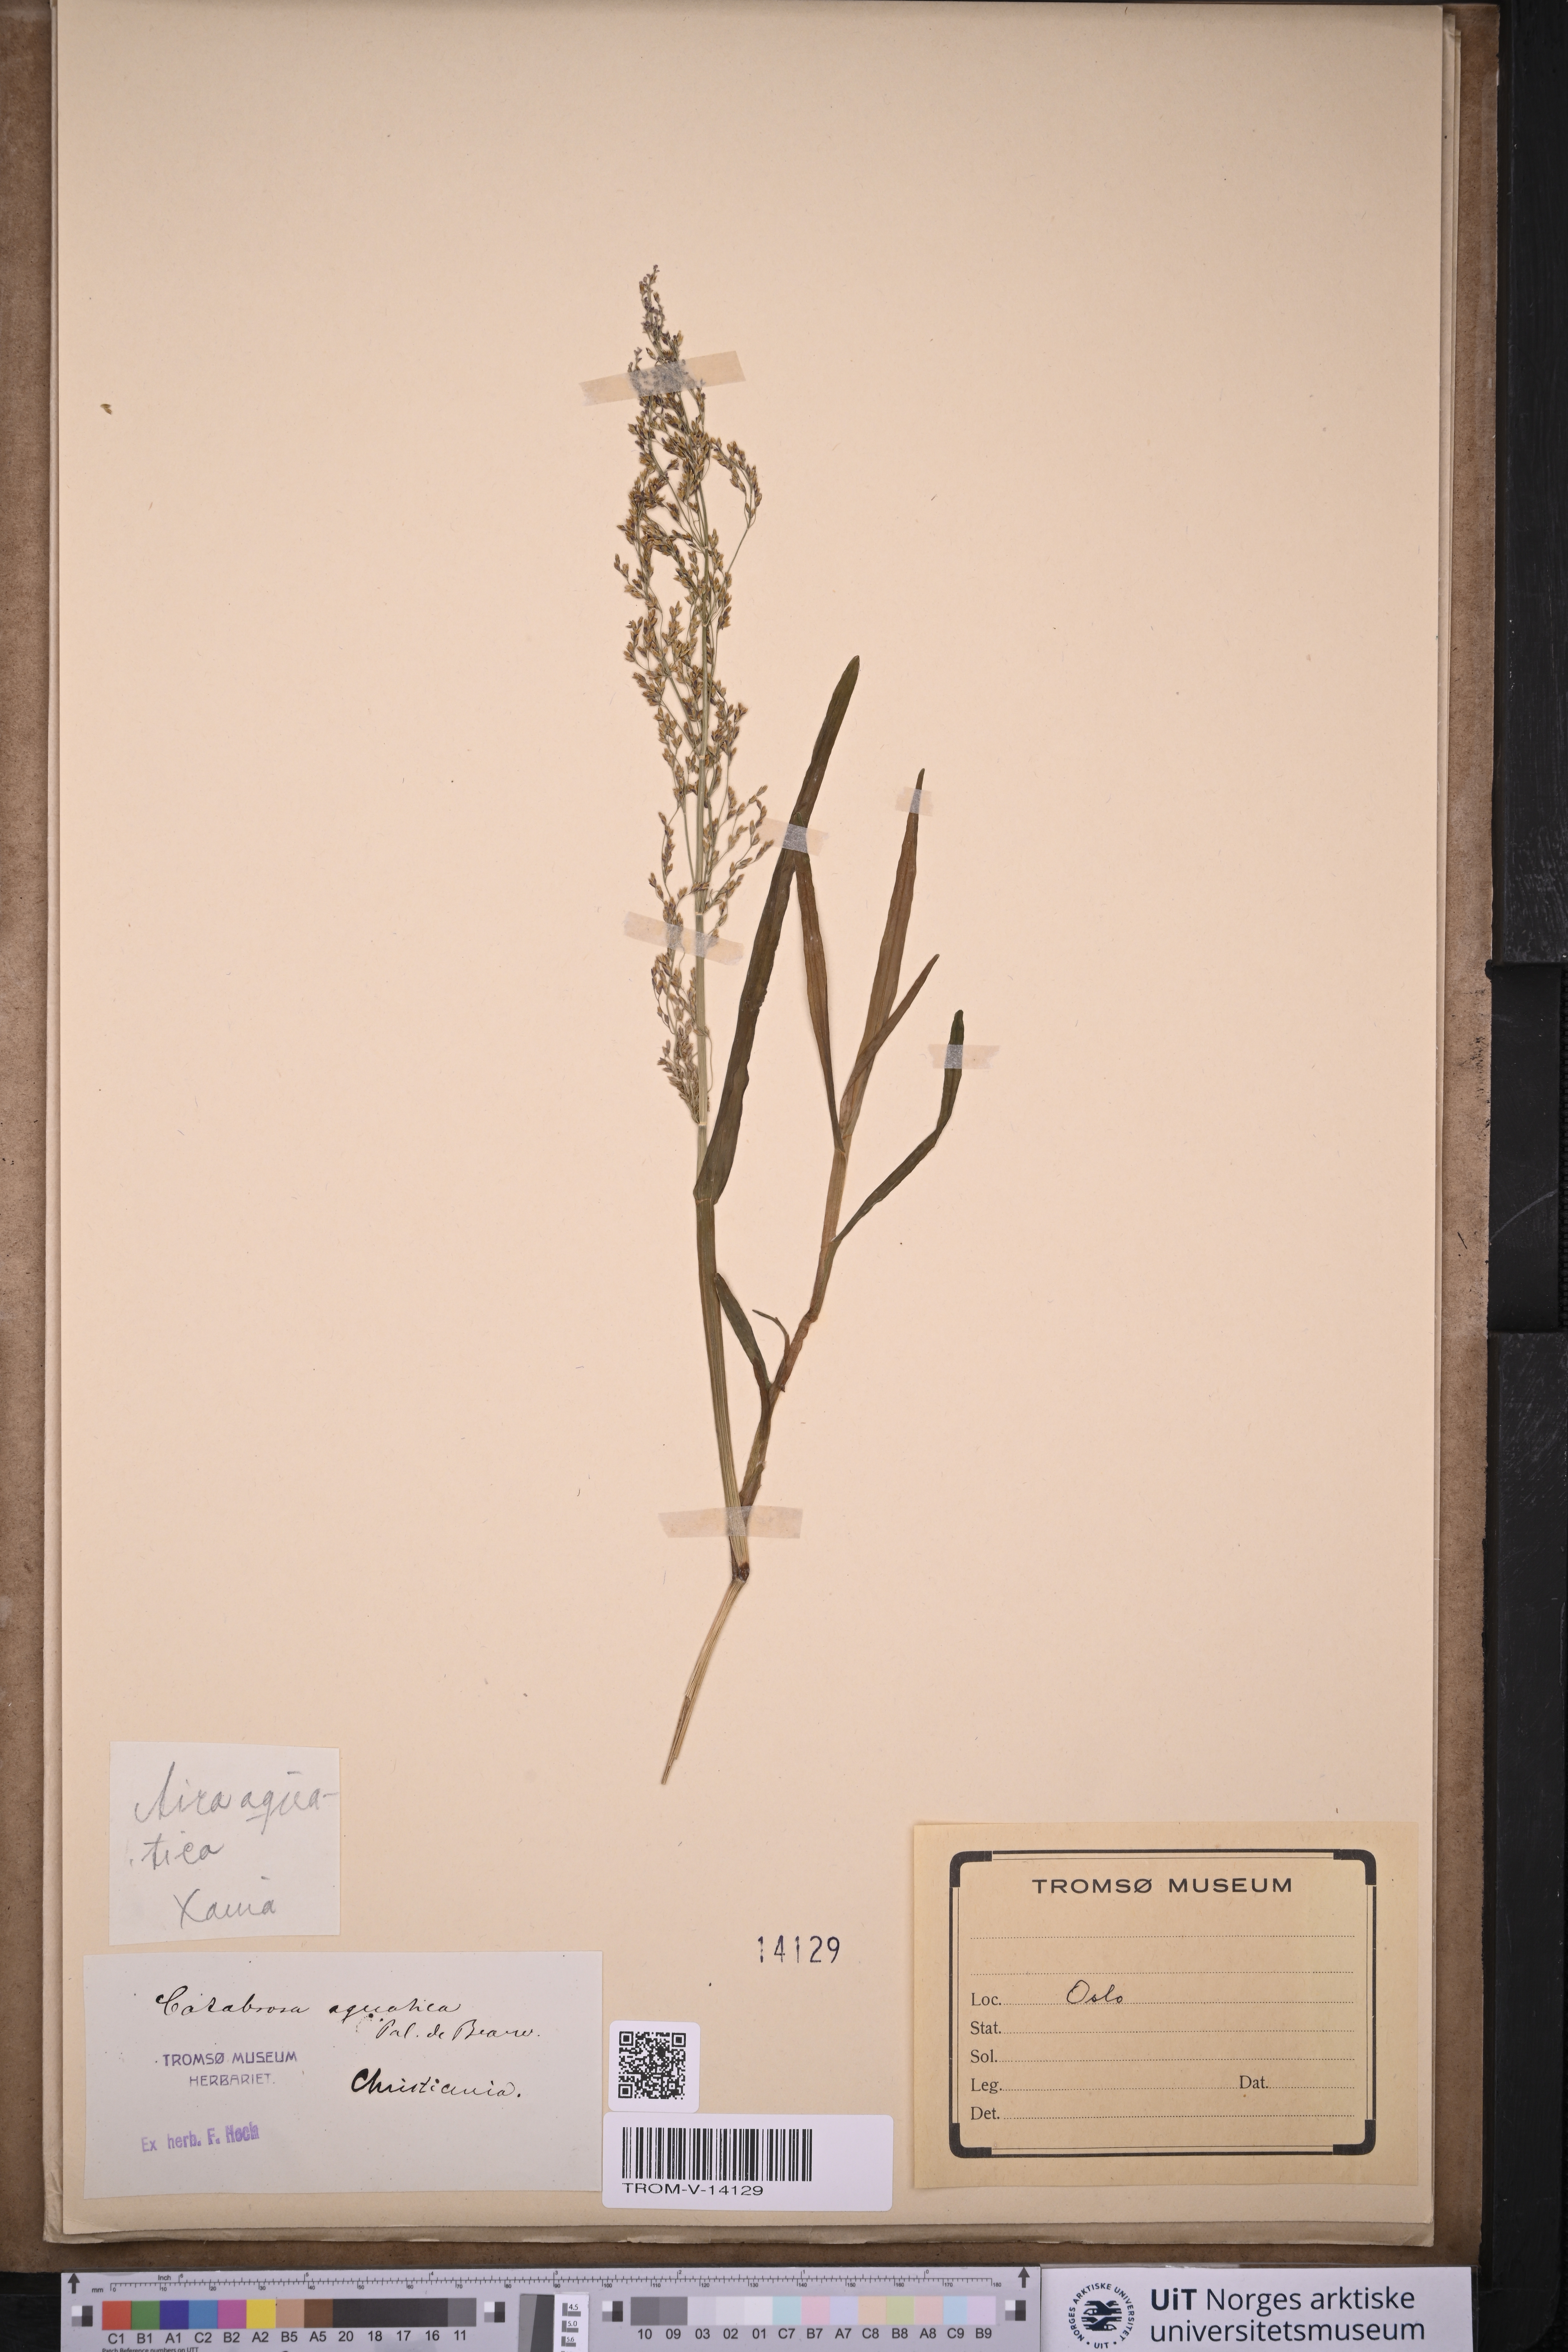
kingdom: Plantae
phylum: Tracheophyta
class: Liliopsida
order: Poales
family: Poaceae
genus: Catabrosa
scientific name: Catabrosa aquatica
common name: Whorl-grass
